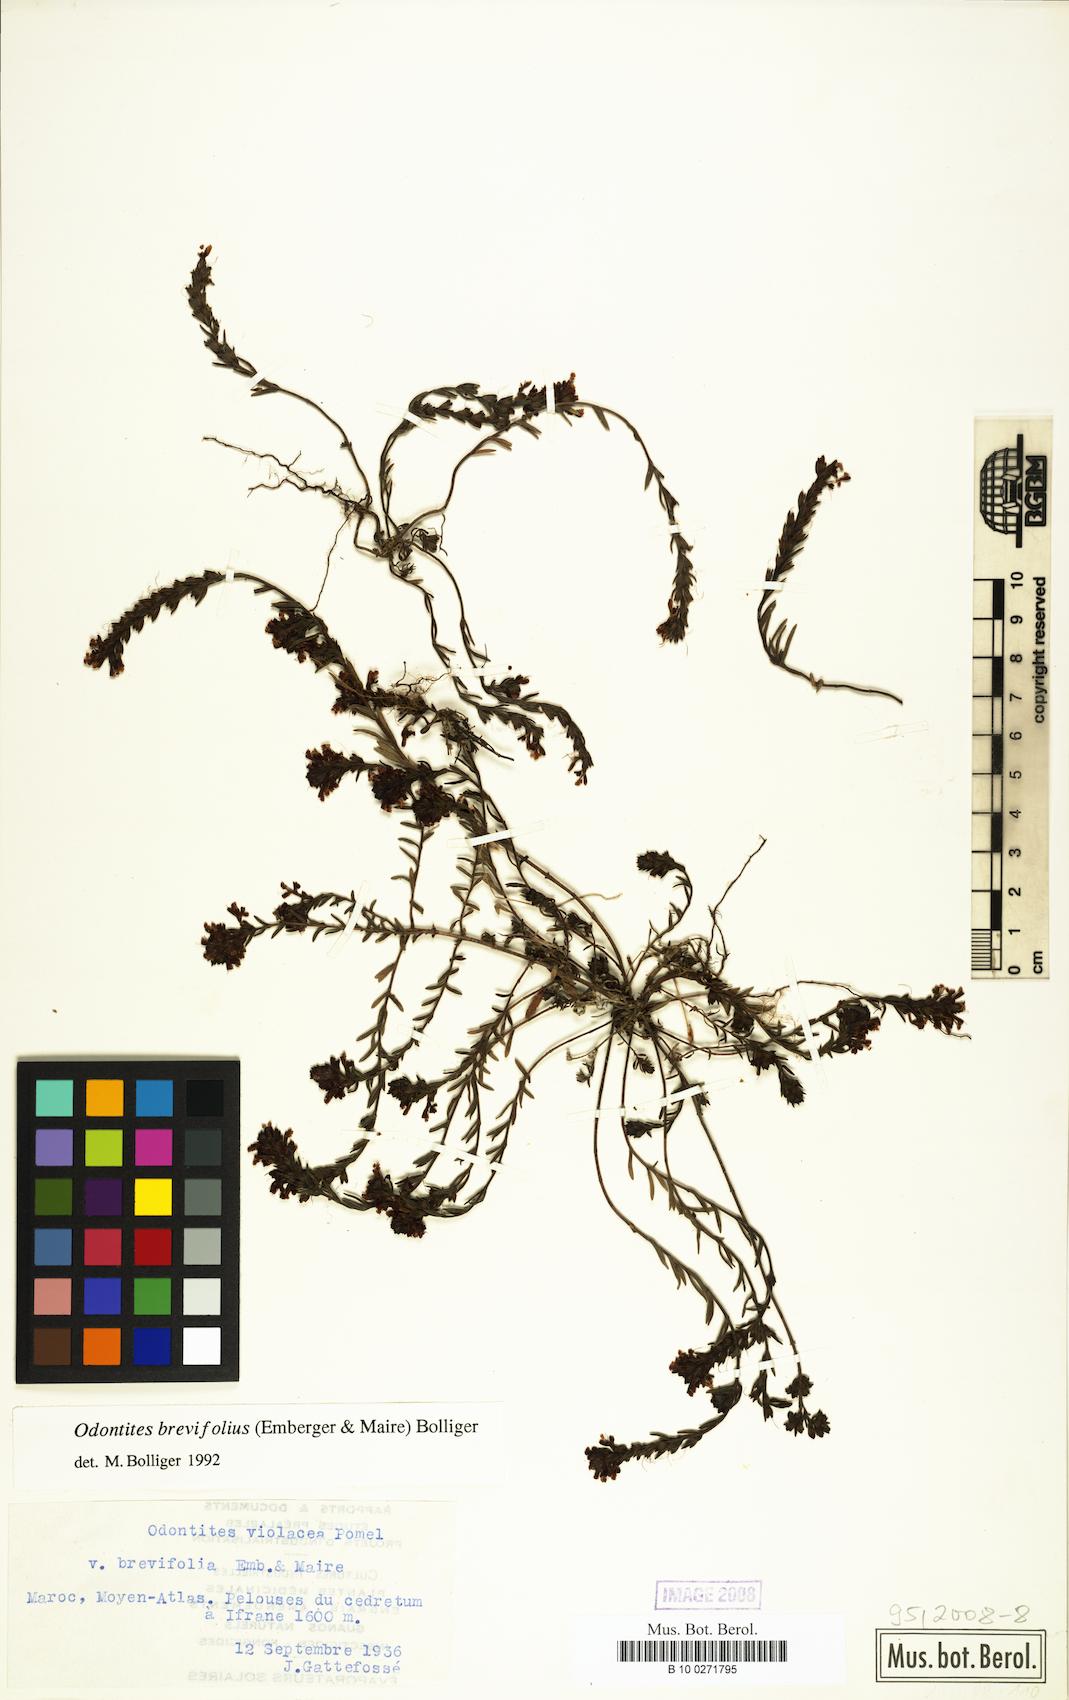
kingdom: Plantae
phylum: Tracheophyta
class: Magnoliopsida
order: Lamiales
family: Orobanchaceae
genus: Odontites
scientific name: Odontites violaceus
